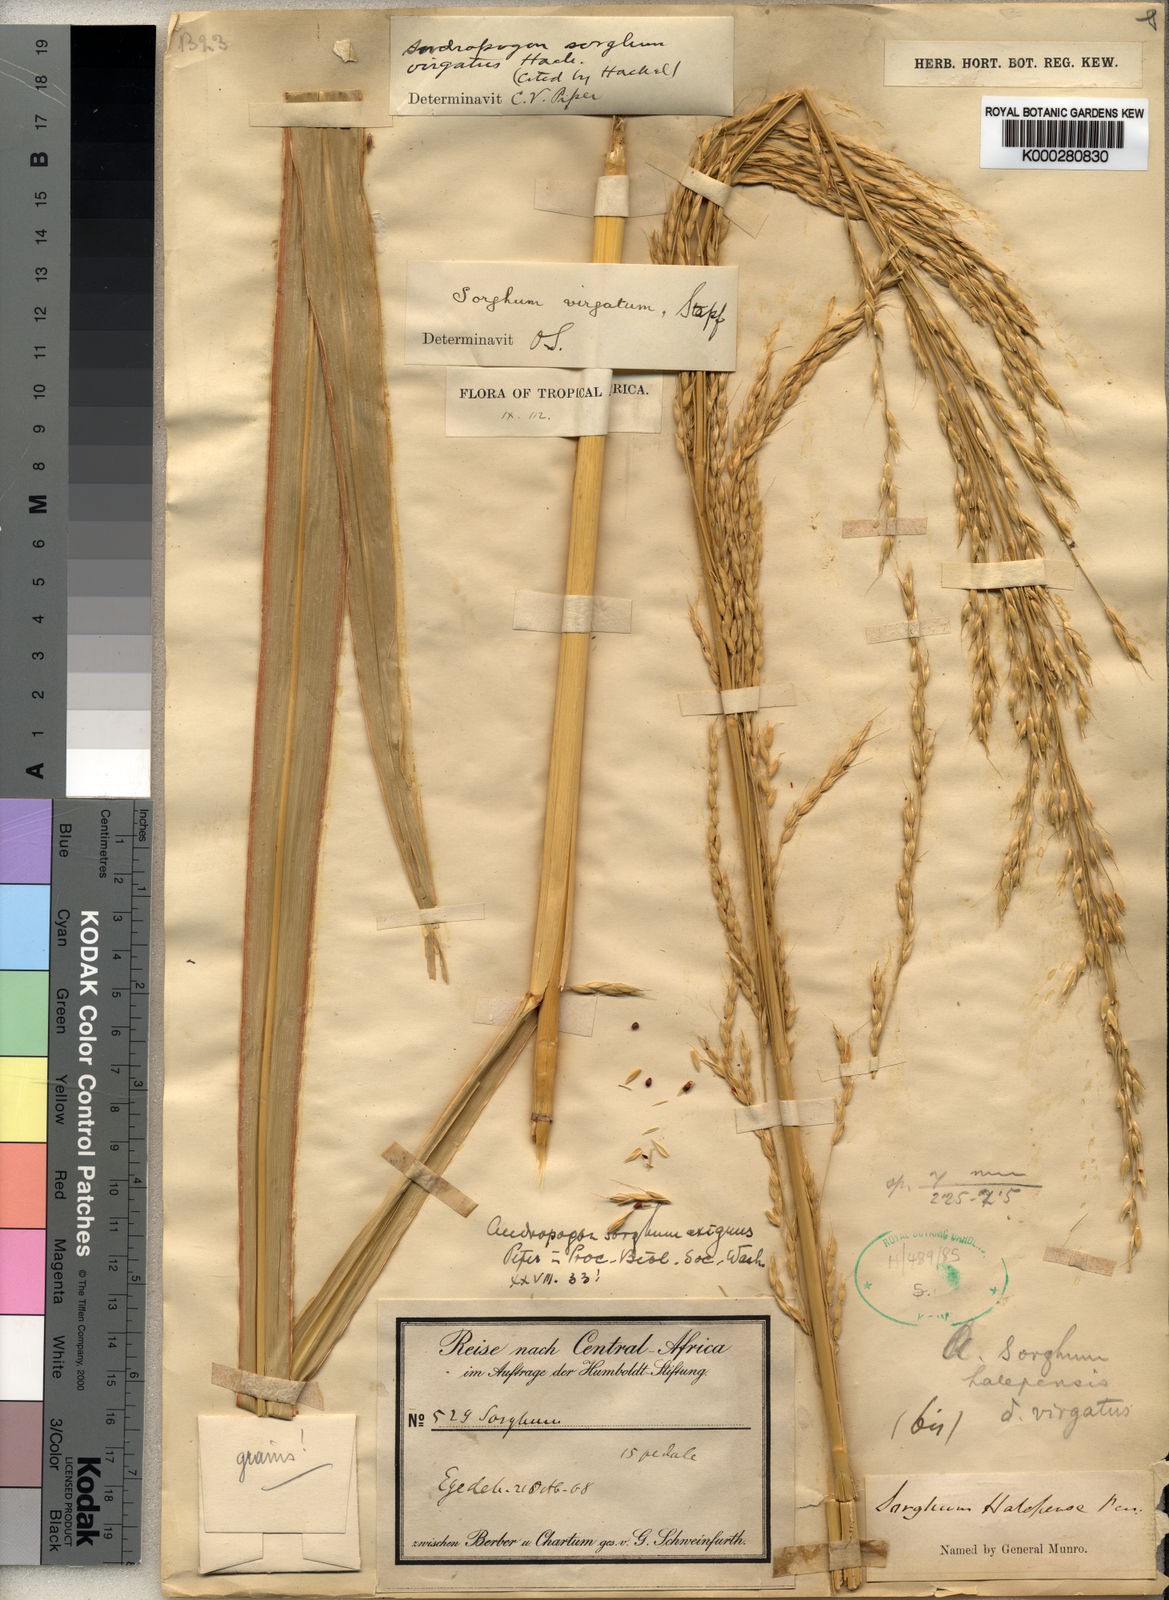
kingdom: Plantae
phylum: Tracheophyta
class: Liliopsida
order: Poales
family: Poaceae
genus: Sorghum
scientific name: Sorghum virgatum
